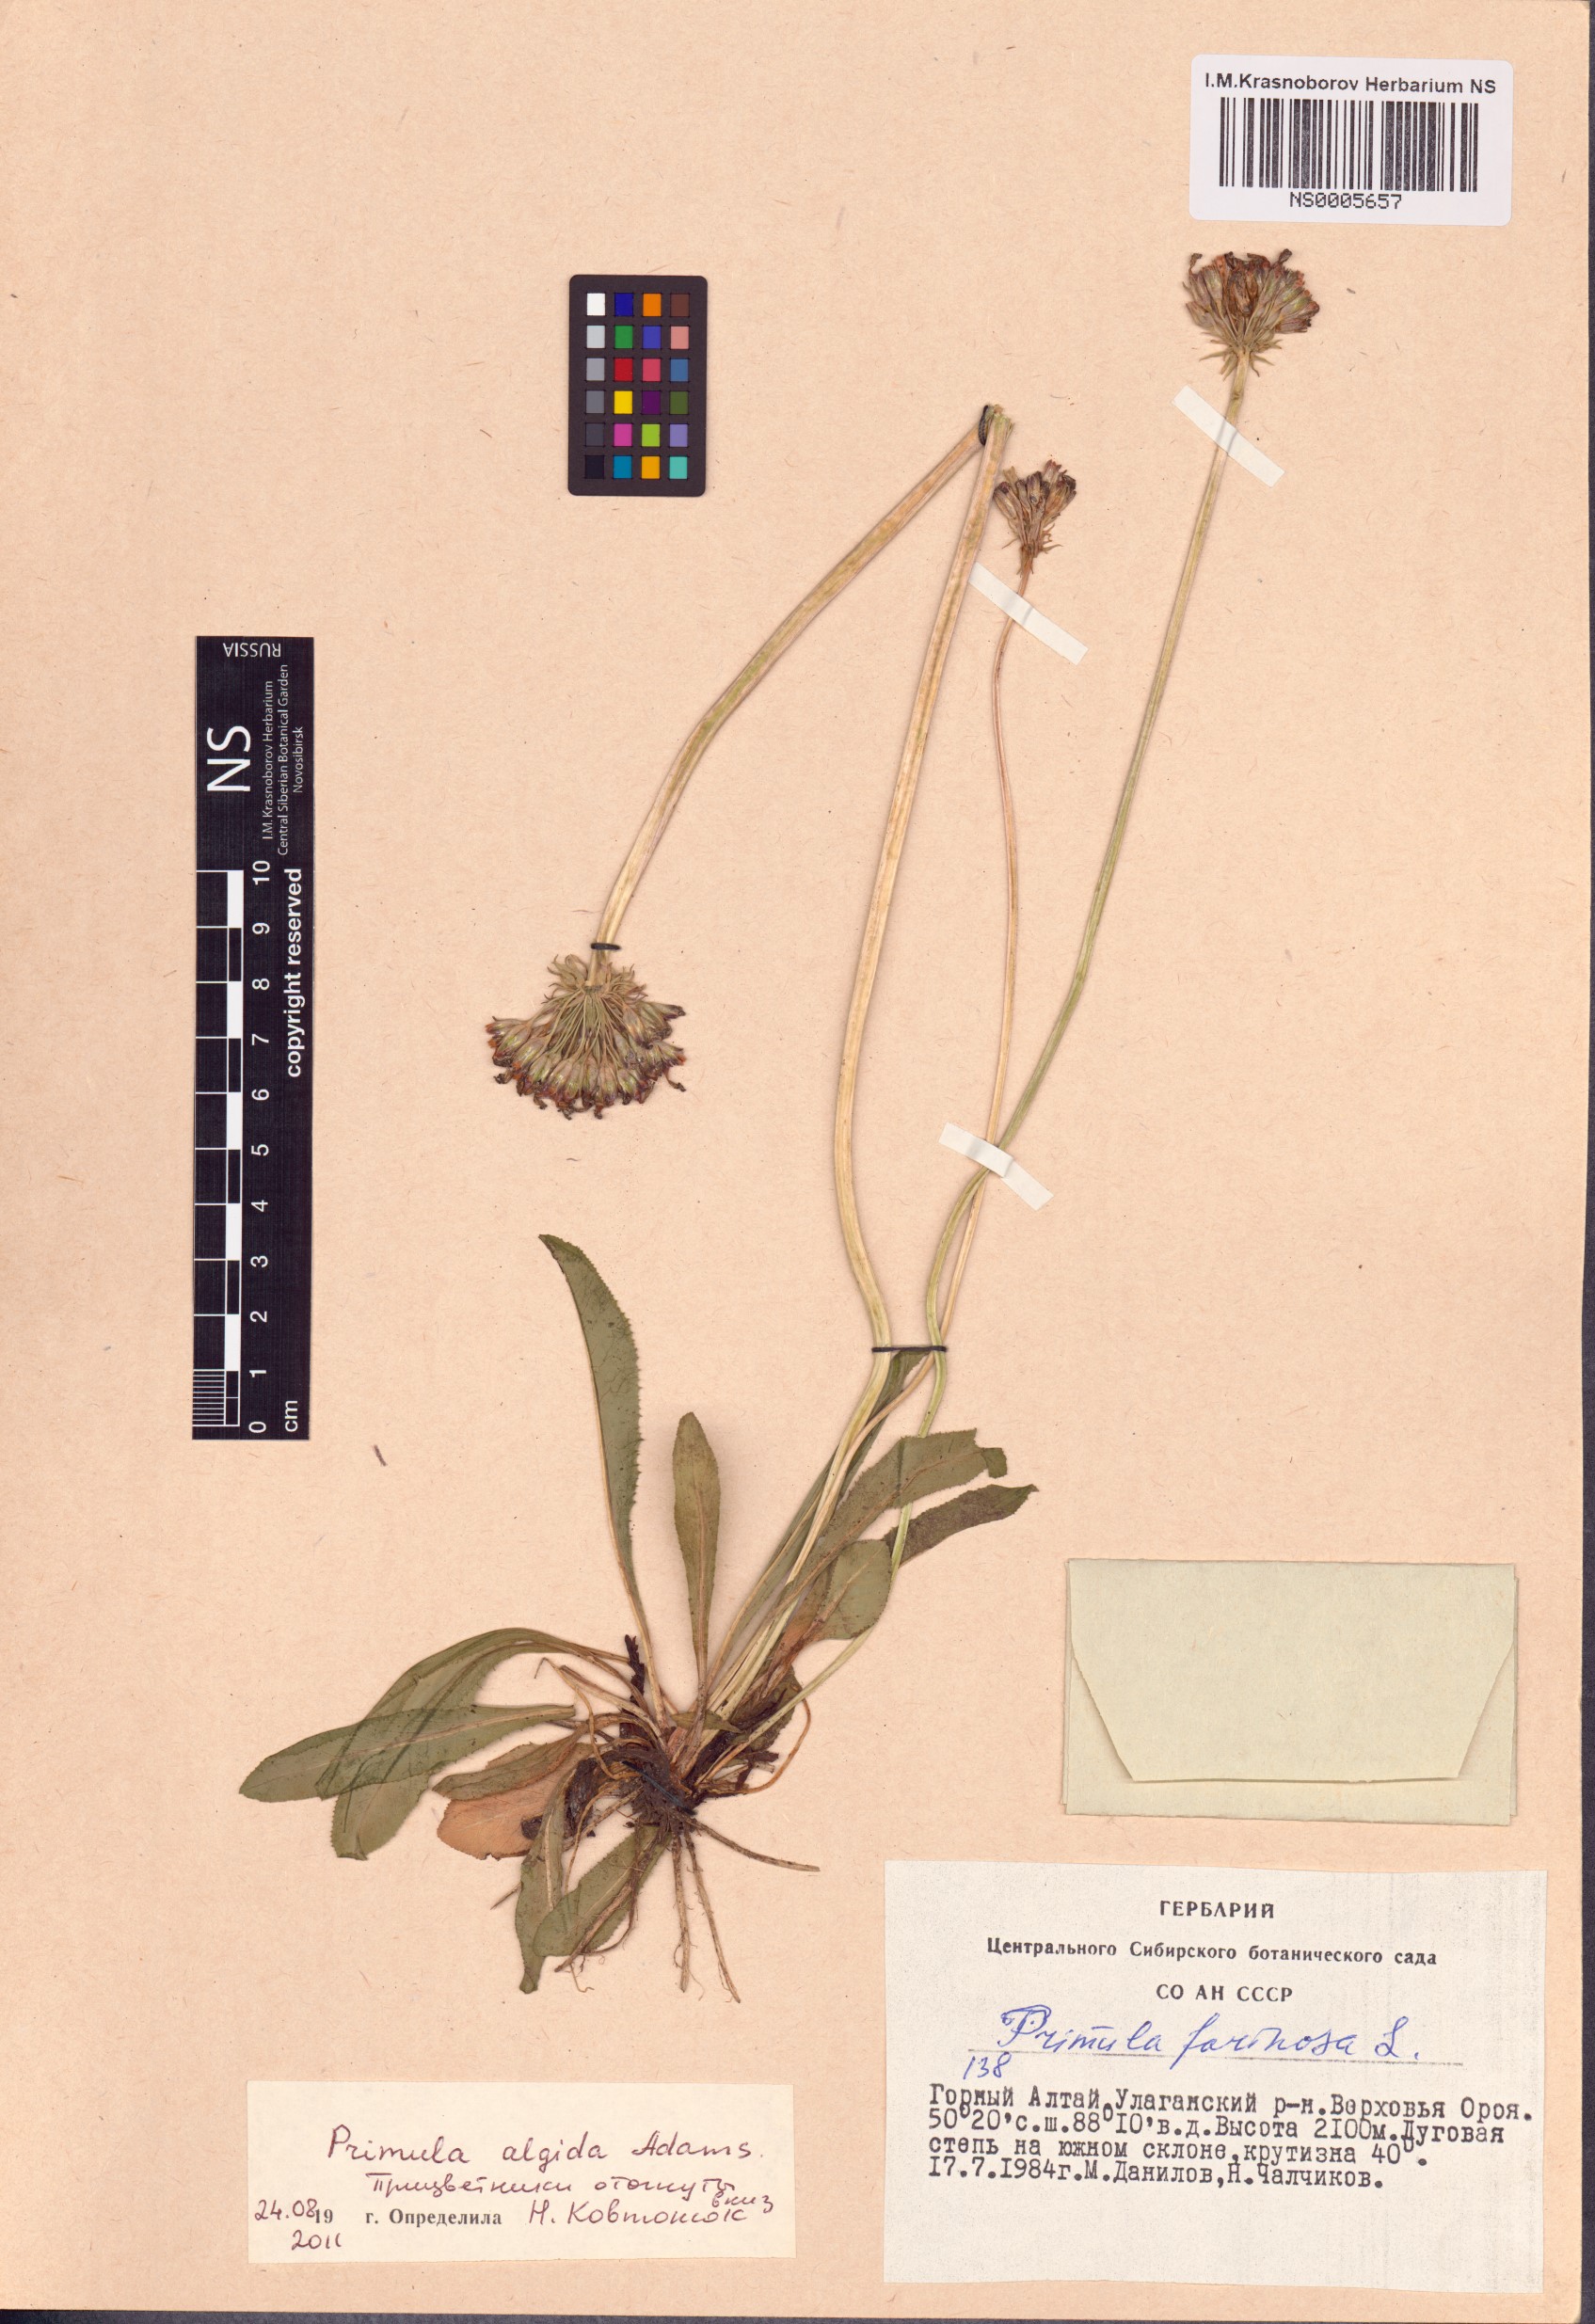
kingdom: Plantae
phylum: Tracheophyta
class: Magnoliopsida
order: Ericales
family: Primulaceae
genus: Primula
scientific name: Primula algida
